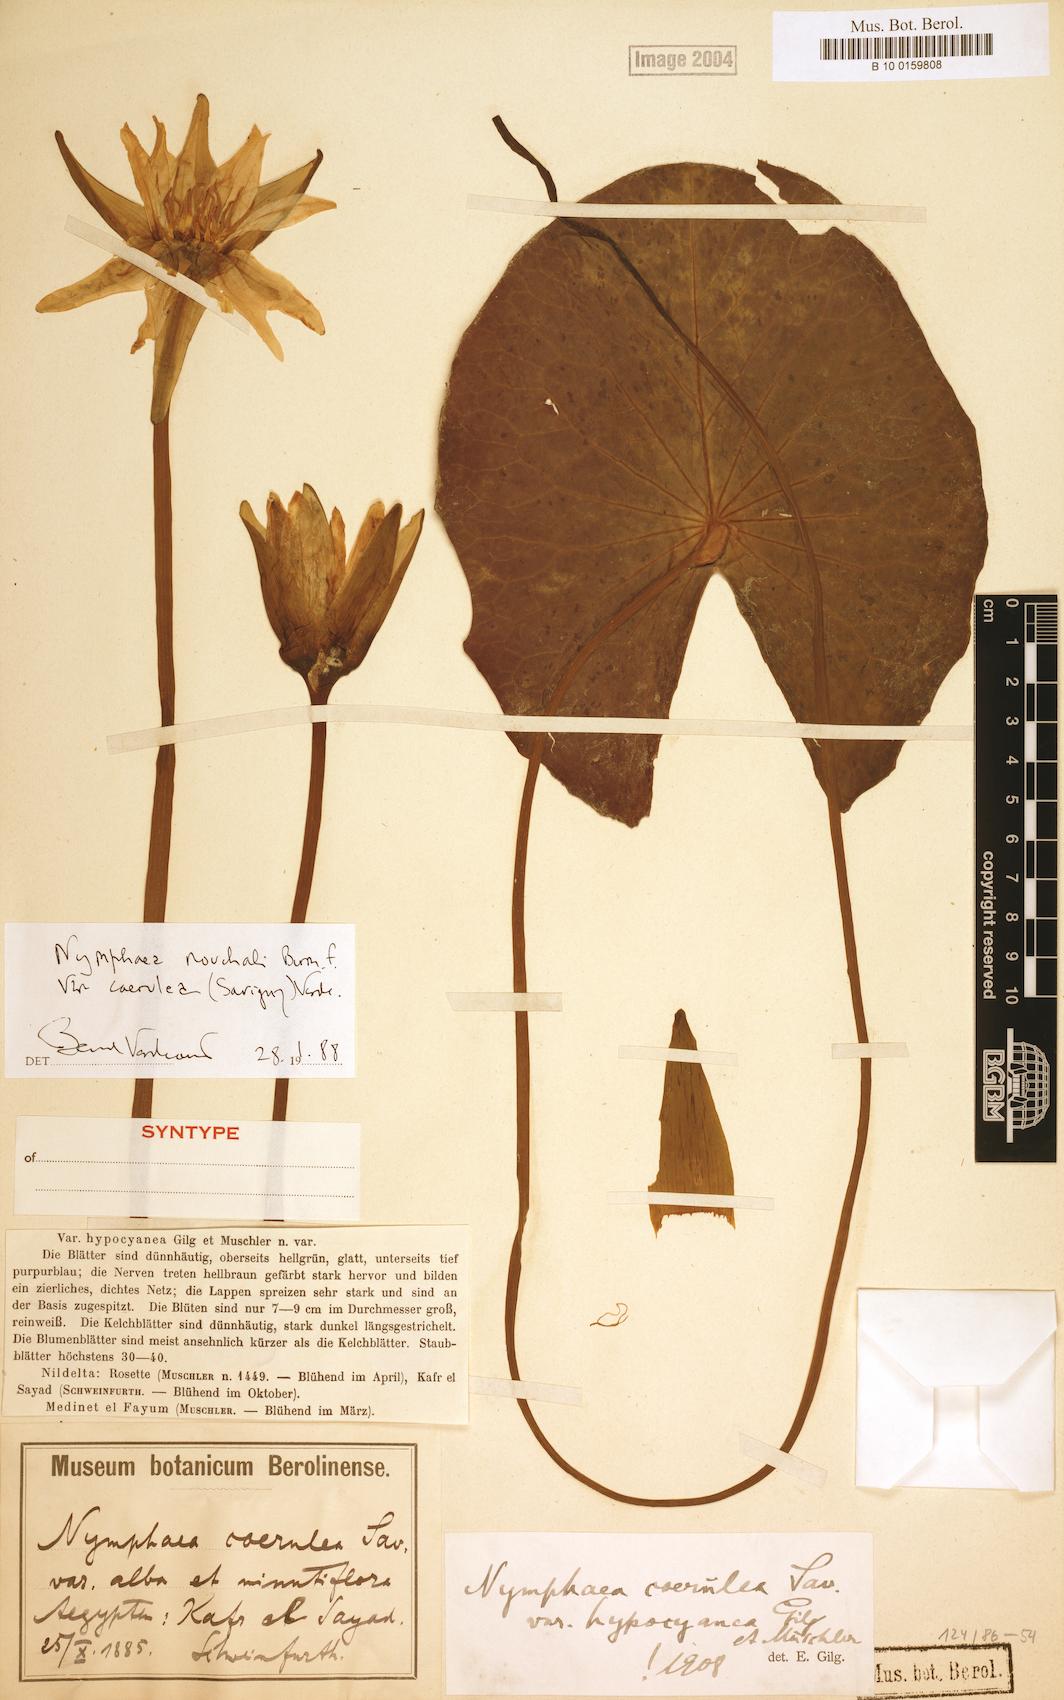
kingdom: Plantae
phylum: Tracheophyta
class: Magnoliopsida
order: Nymphaeales
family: Nymphaeaceae
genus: Nymphaea
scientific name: Nymphaea nouchali
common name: Blue lotus
